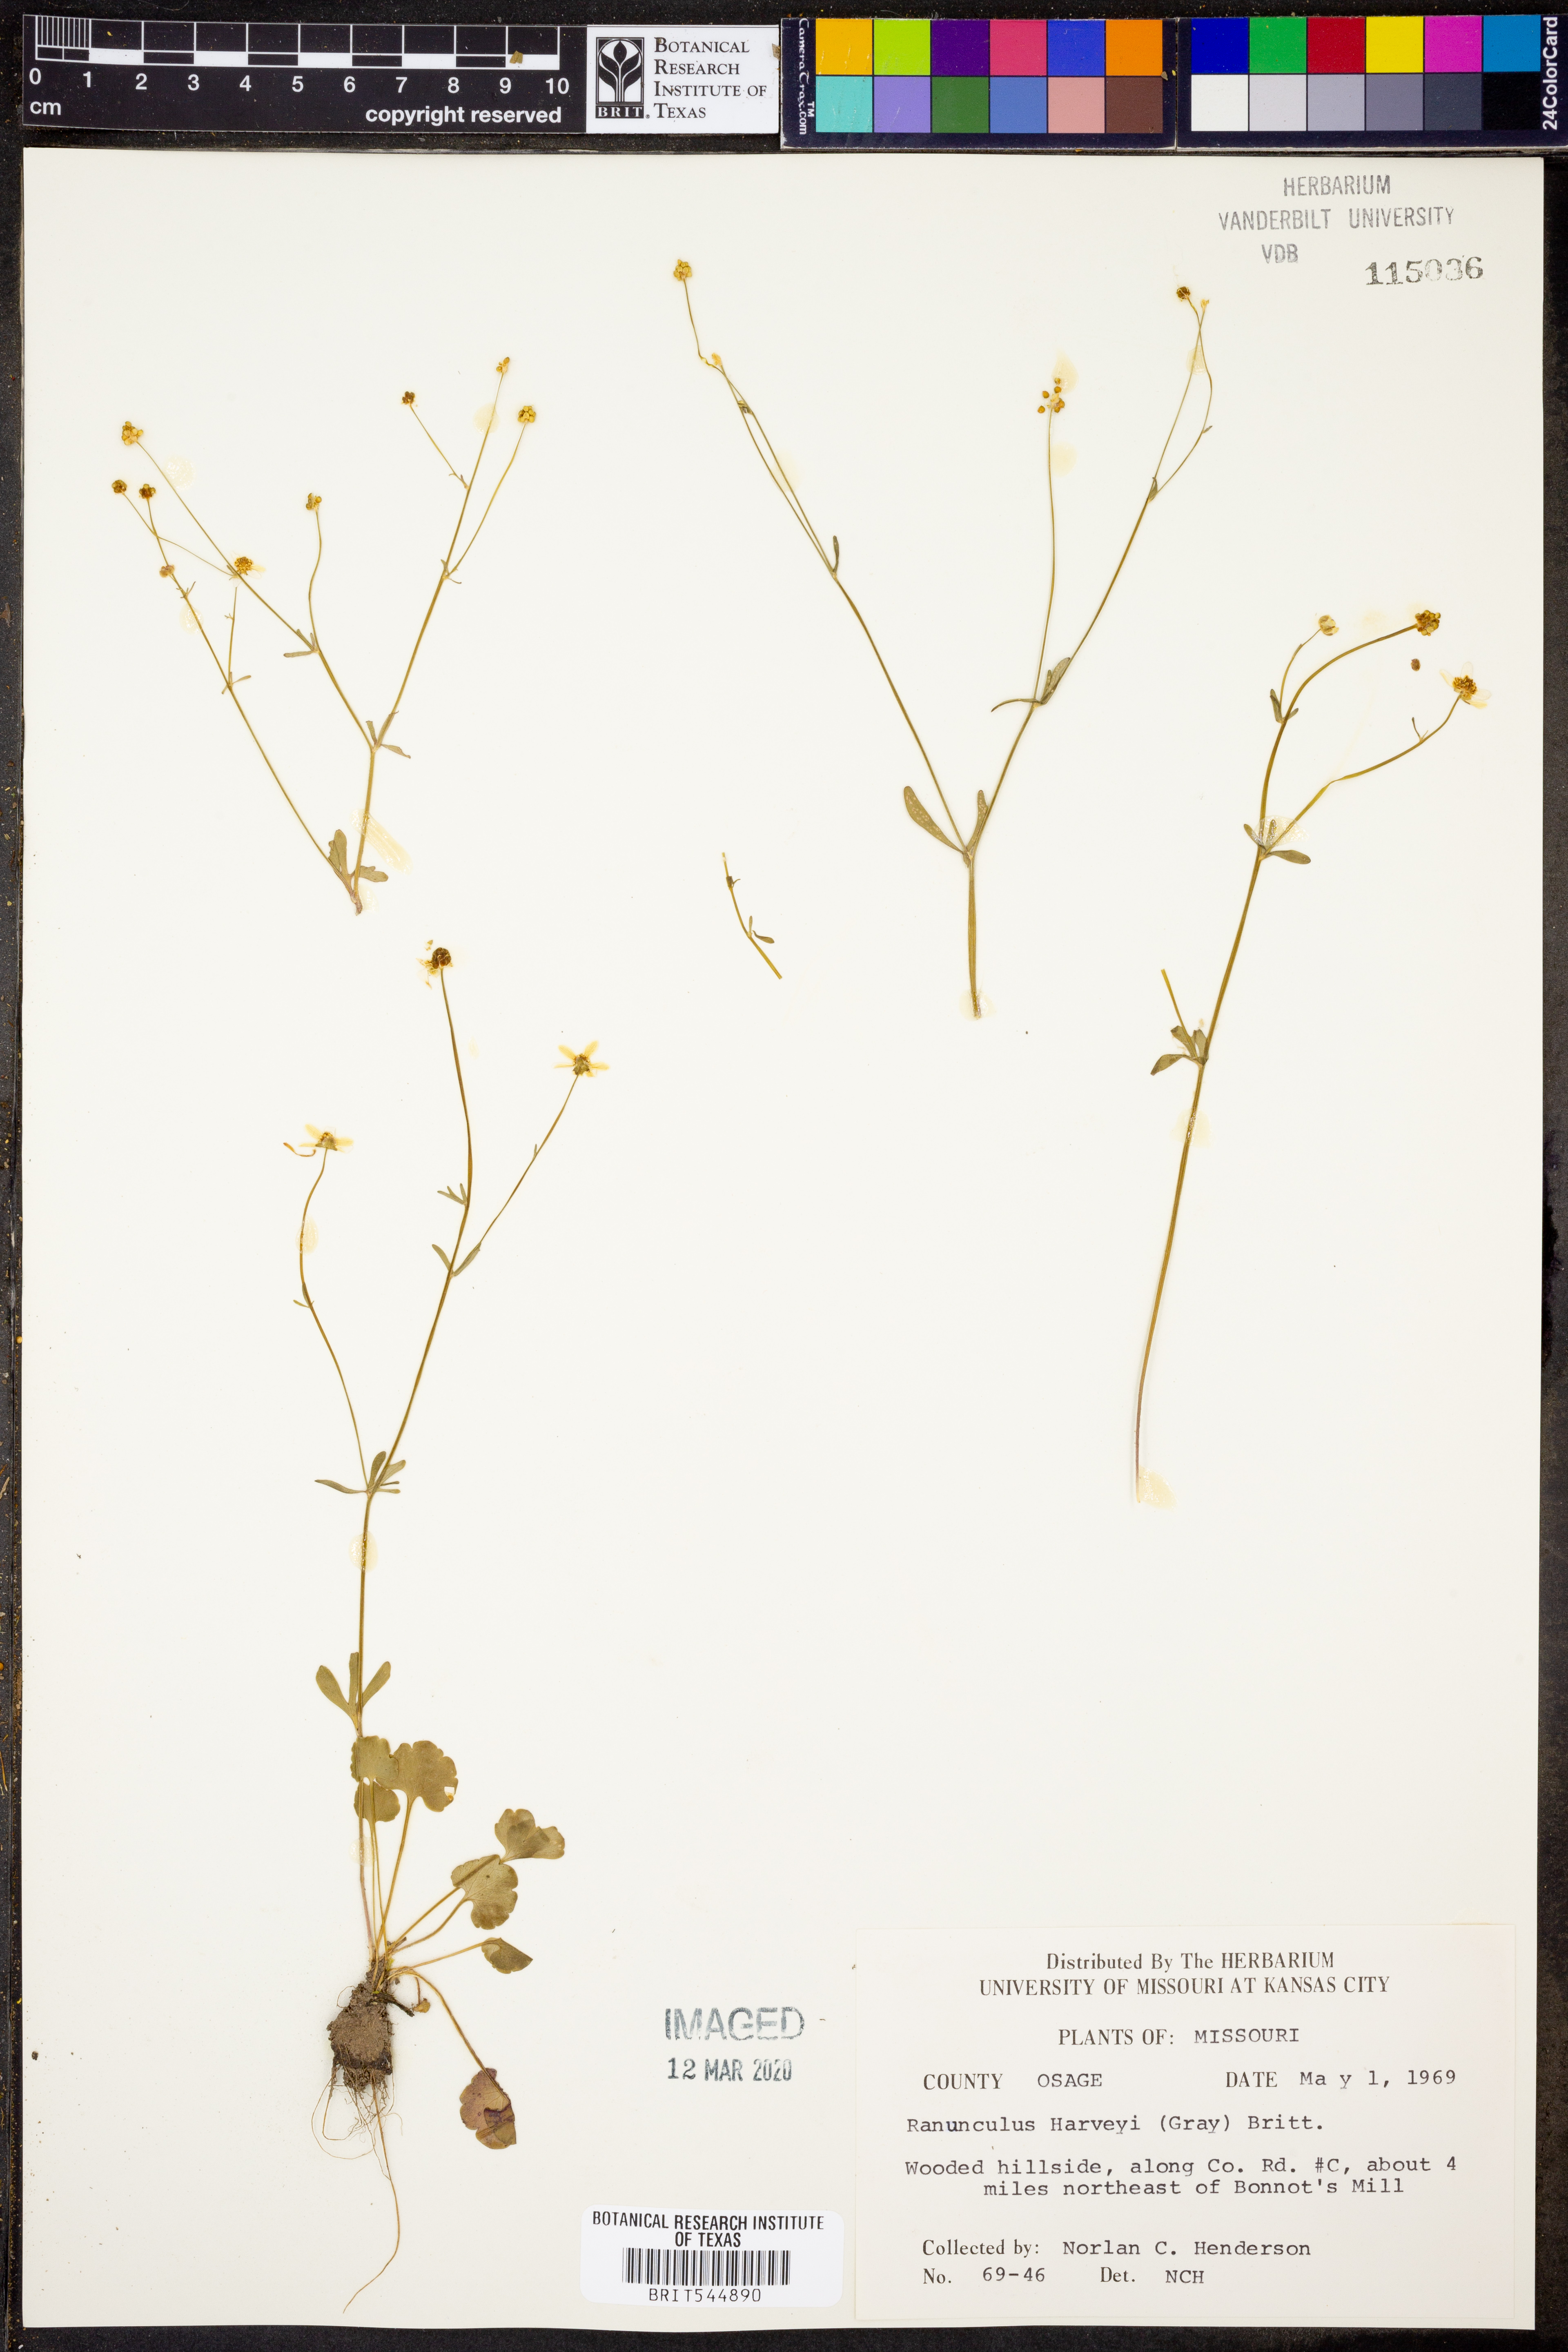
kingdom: Plantae
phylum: Tracheophyta
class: Magnoliopsida
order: Ranunculales
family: Ranunculaceae
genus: Ranunculus
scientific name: Ranunculus harveyi
